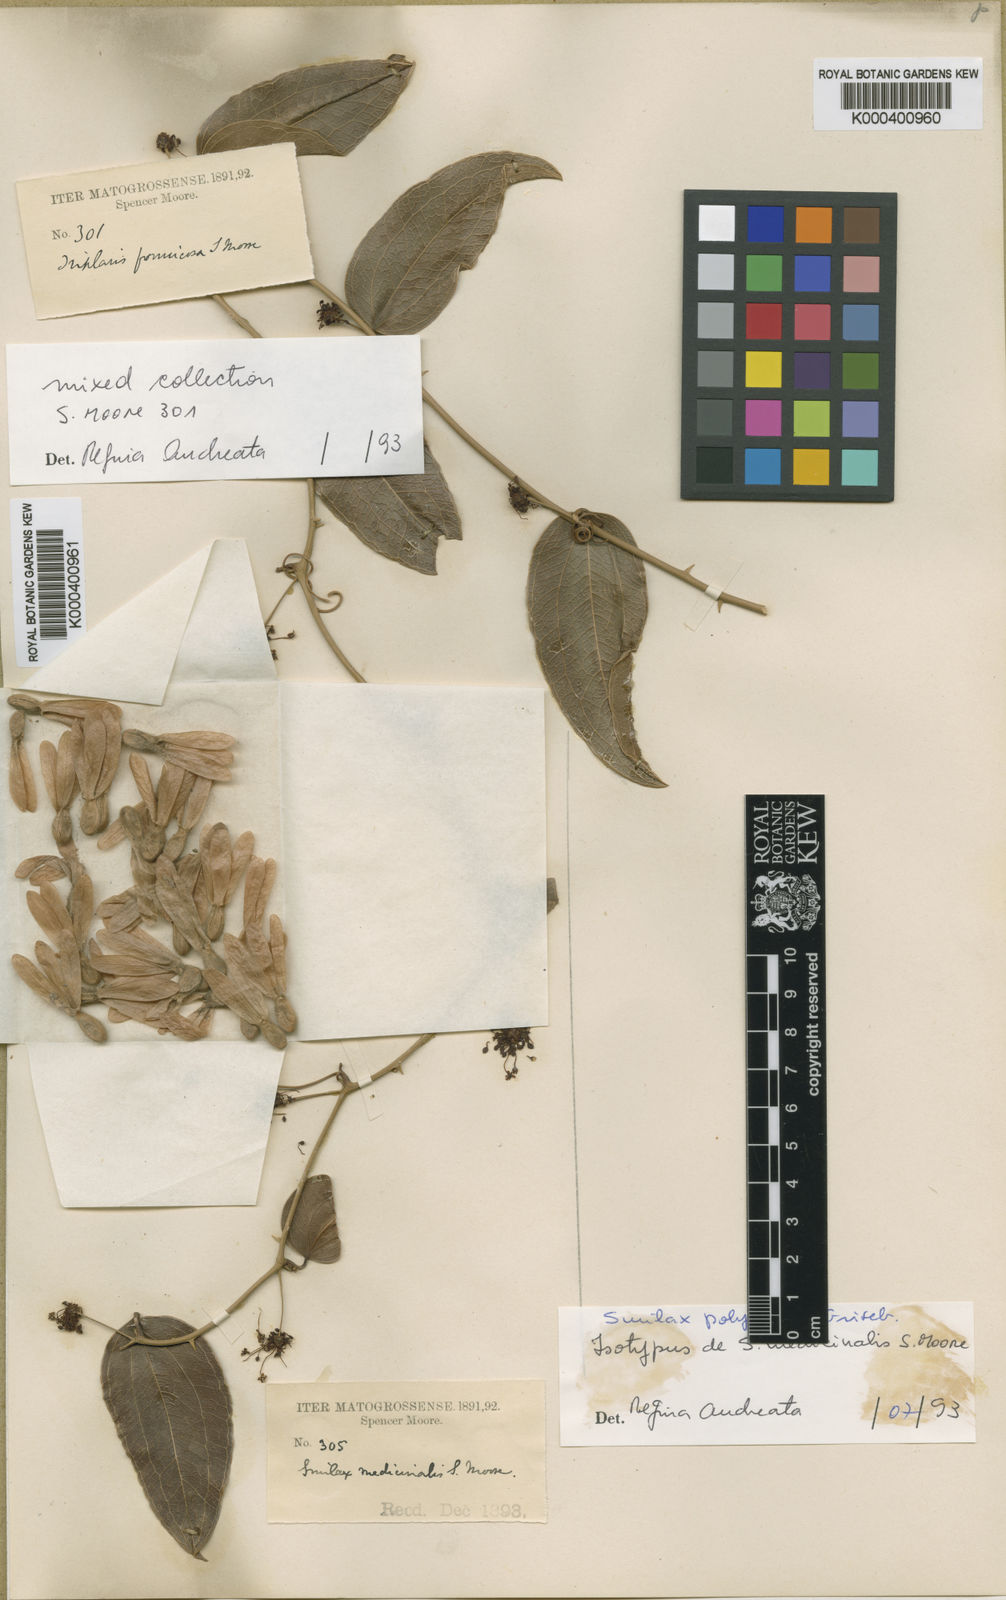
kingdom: Plantae
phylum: Tracheophyta
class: Liliopsida
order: Liliales
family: Smilacaceae
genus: Smilax
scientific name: Smilax polyantha
